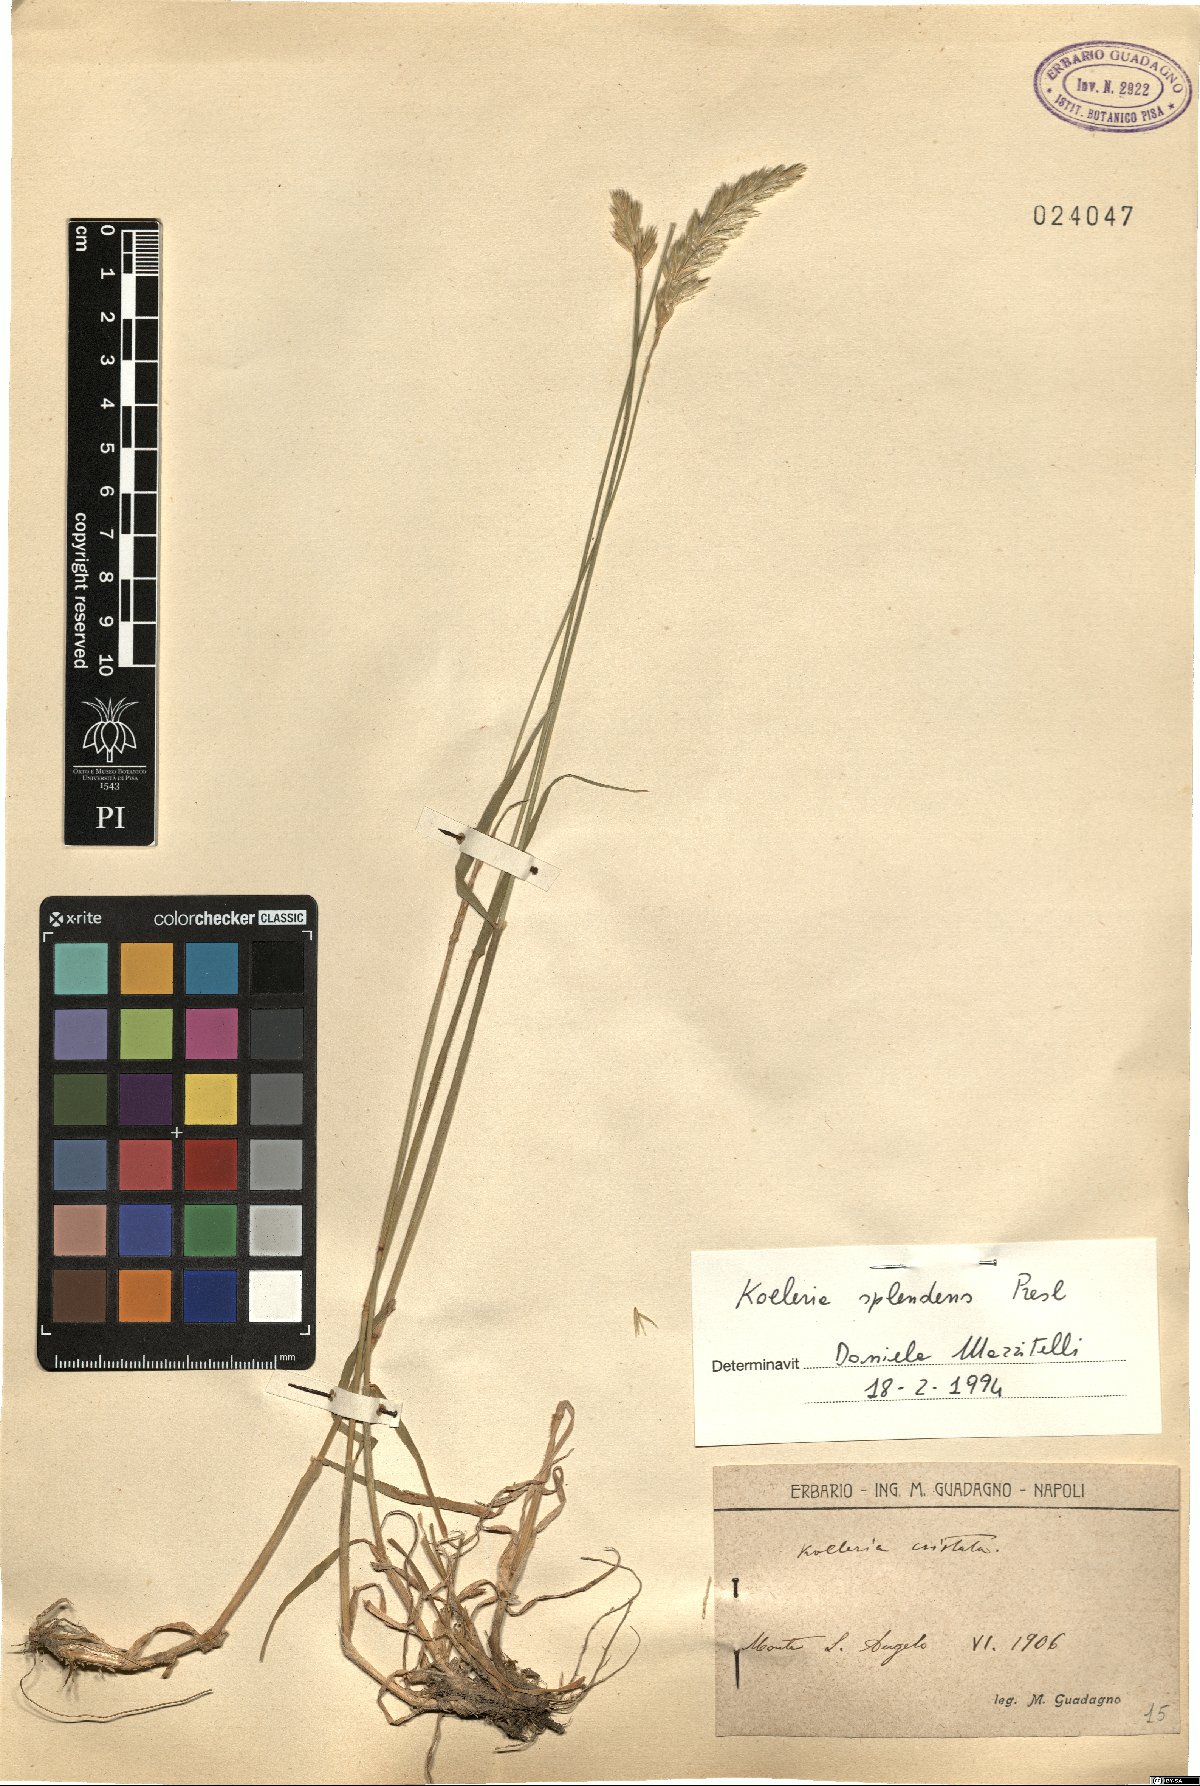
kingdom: Plantae
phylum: Tracheophyta
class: Liliopsida
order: Poales
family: Poaceae
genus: Koeleria
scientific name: Koeleria splendens
